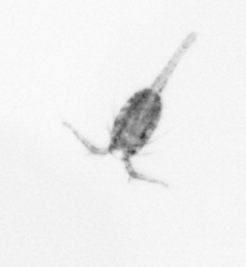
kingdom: Animalia
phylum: Arthropoda
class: Copepoda
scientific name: Copepoda
